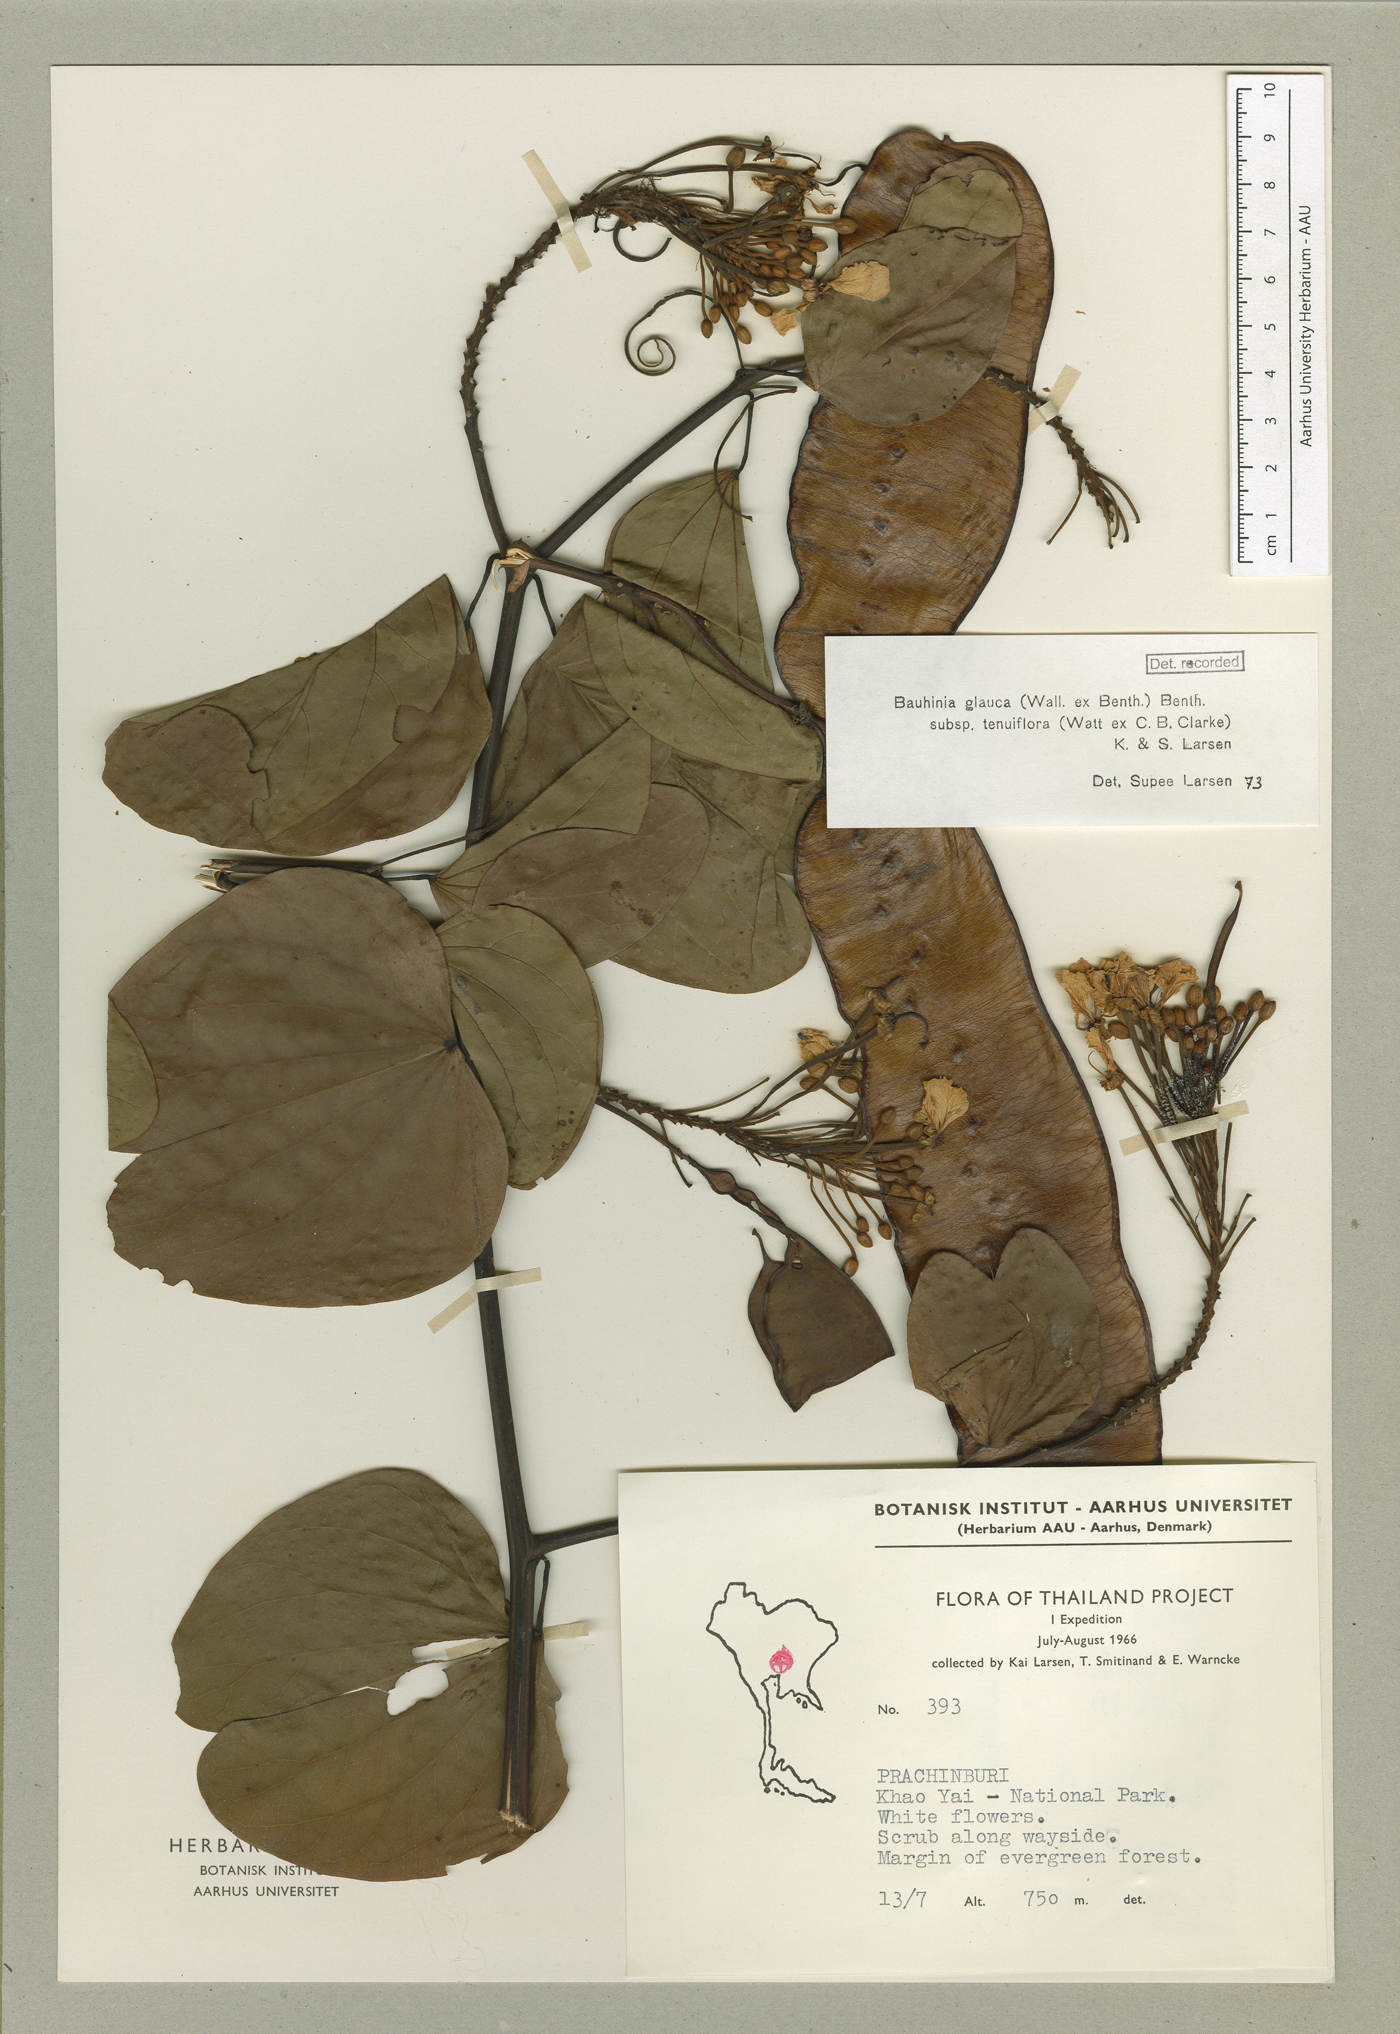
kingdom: Plantae
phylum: Tracheophyta
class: Magnoliopsida
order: Fabales
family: Fabaceae
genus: Bauhinia
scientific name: Bauhinia
